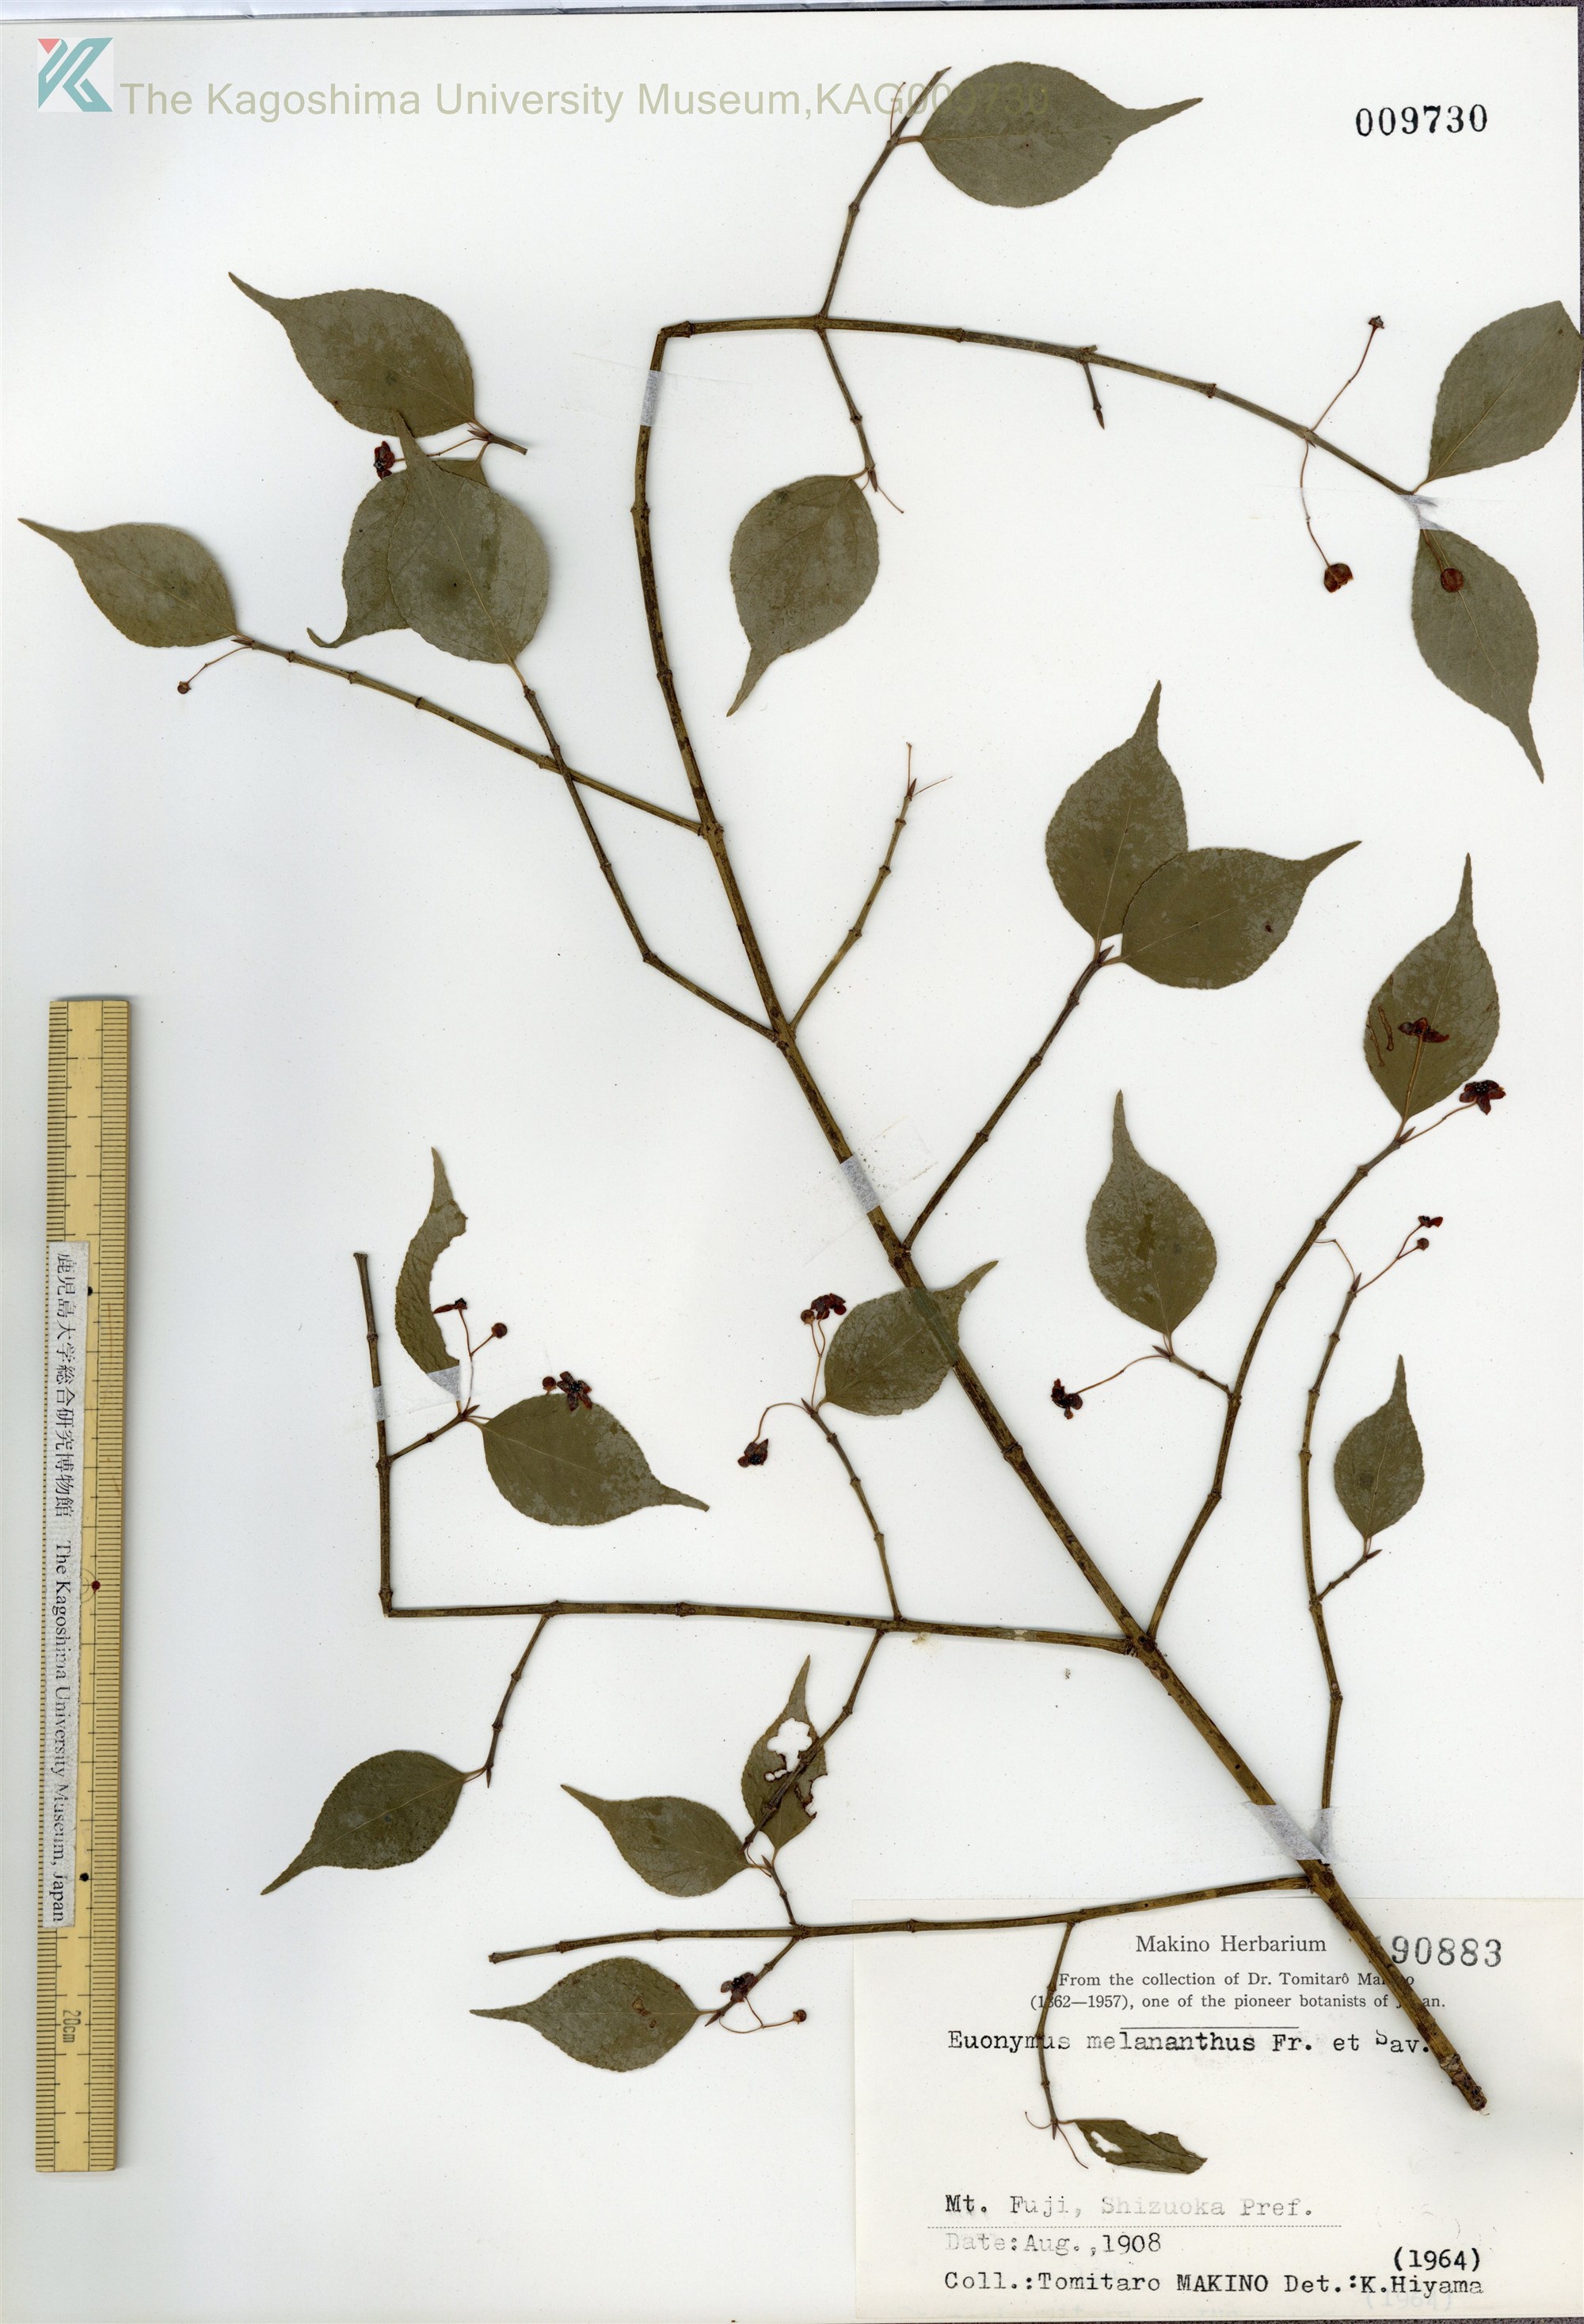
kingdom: Plantae
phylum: Tracheophyta
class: Magnoliopsida
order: Celastrales
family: Celastraceae
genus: Euonymus
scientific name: Euonymus melananthus
